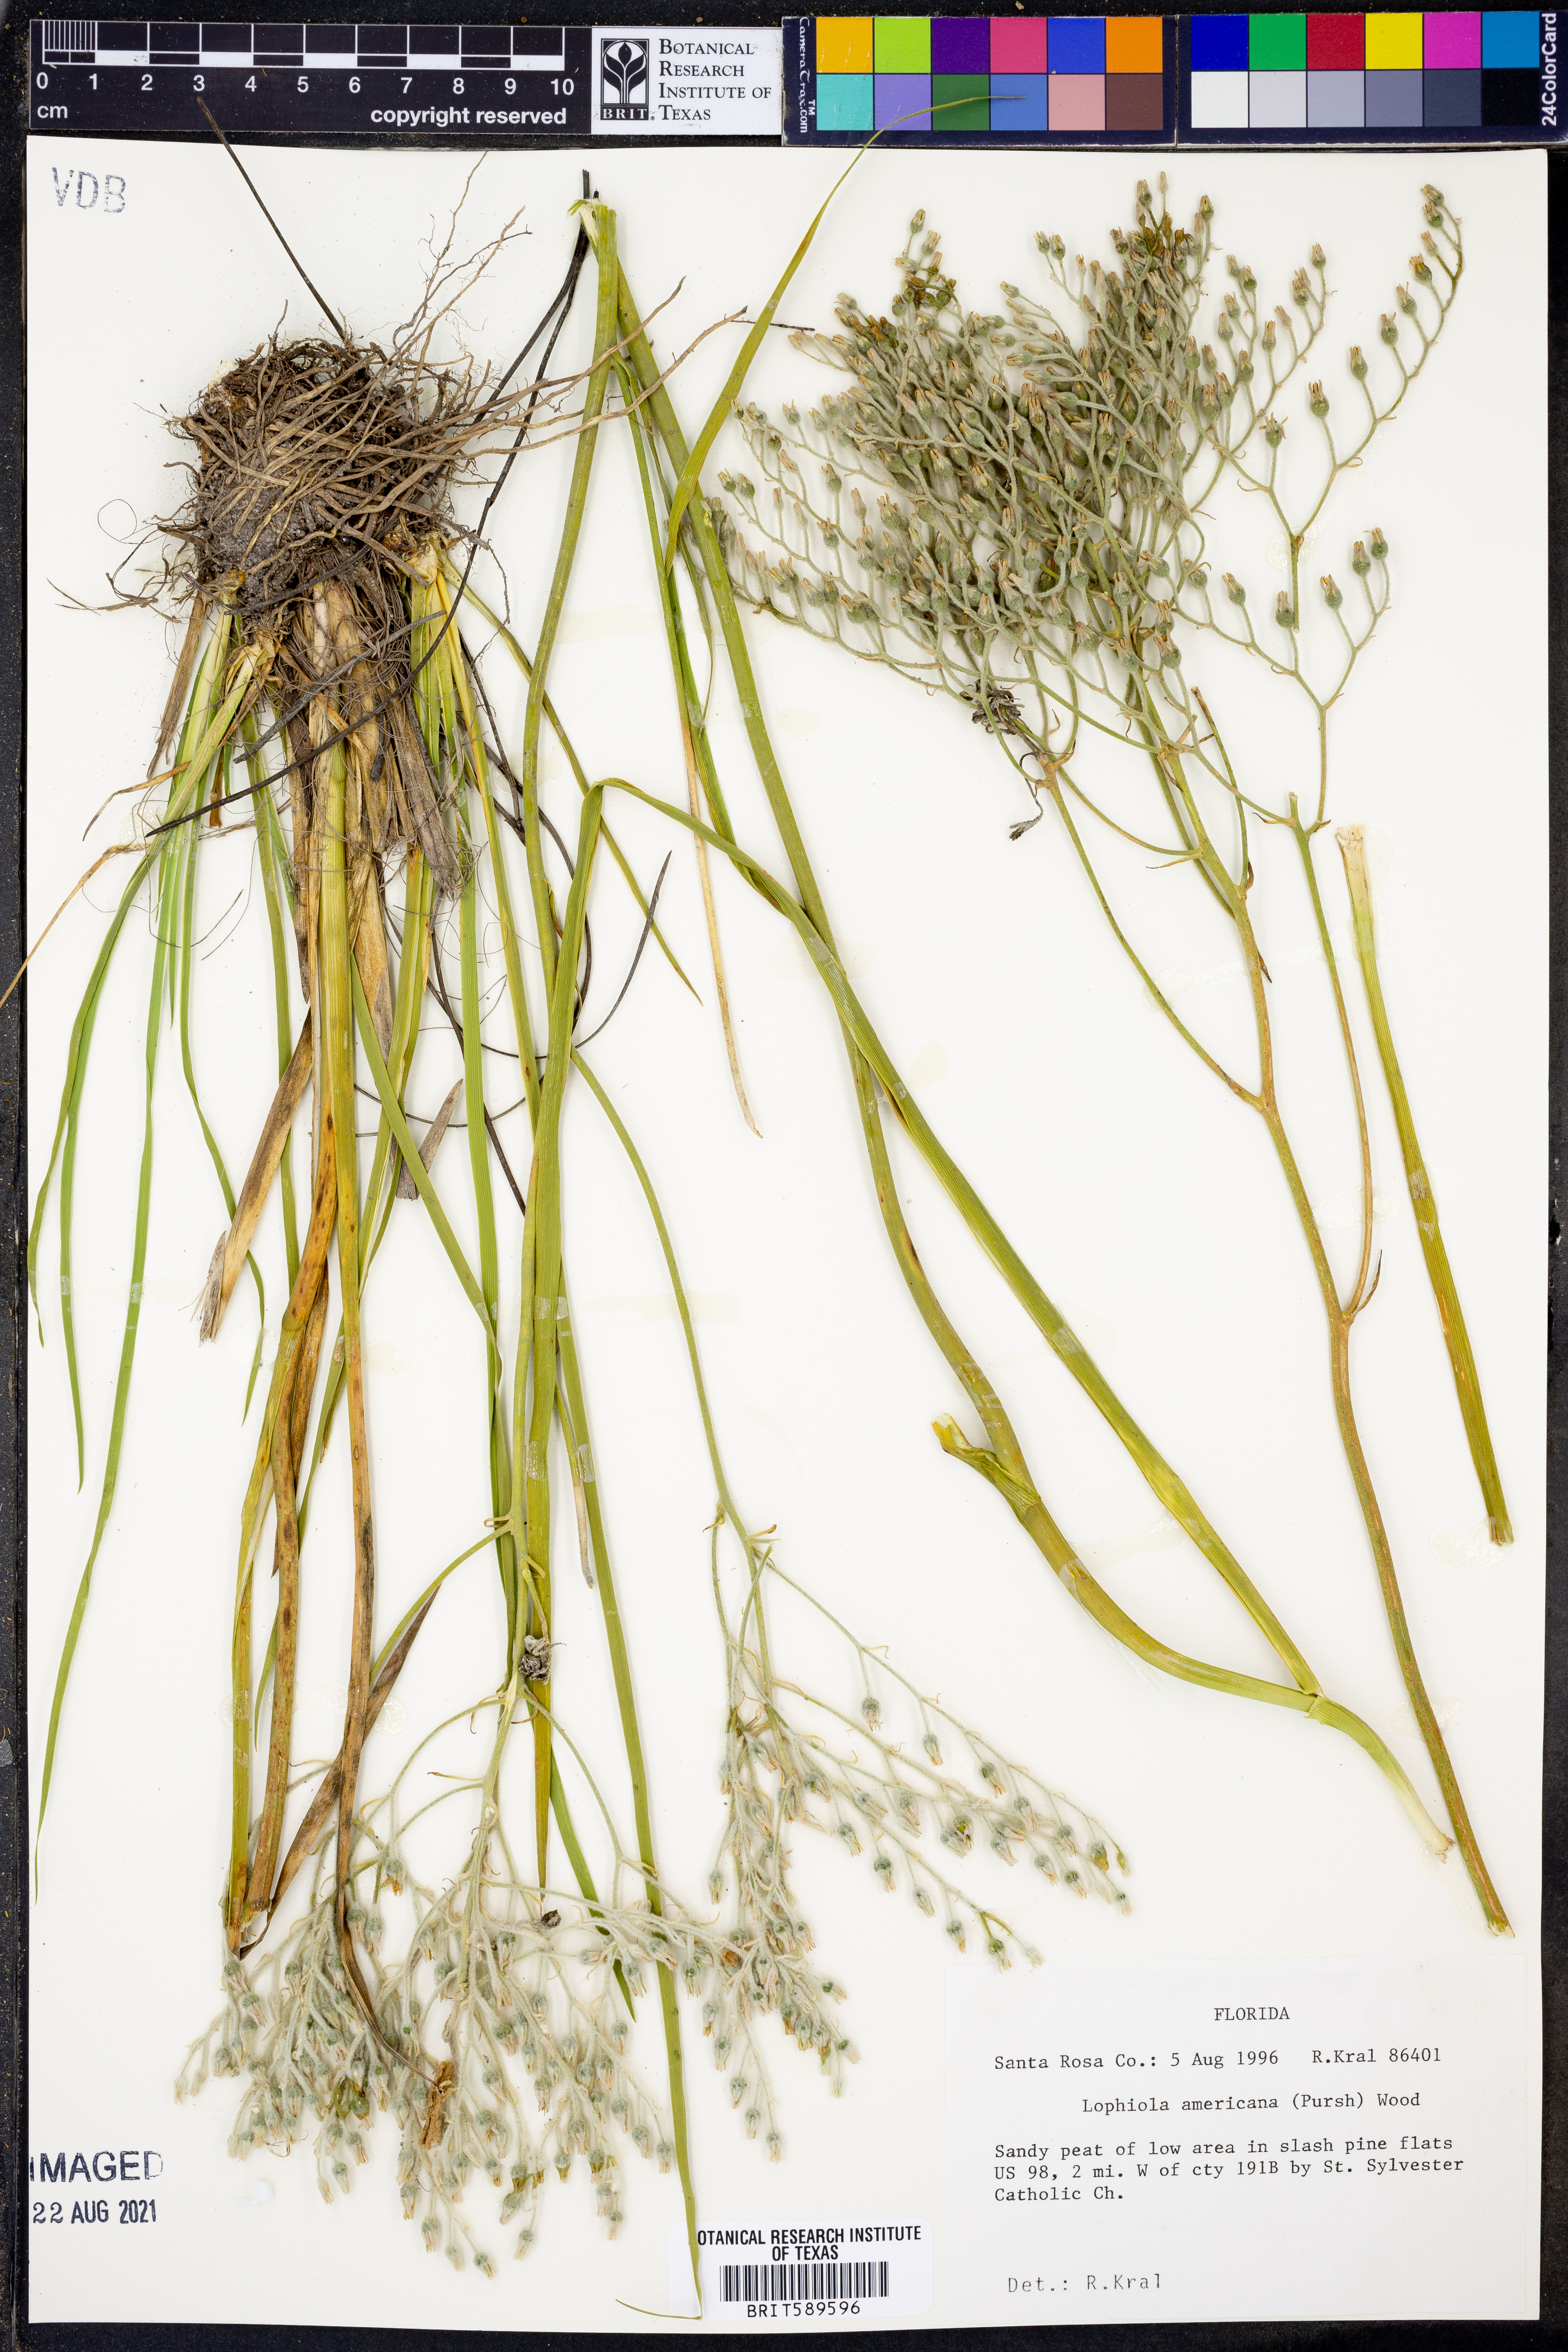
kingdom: Plantae
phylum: Tracheophyta
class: Liliopsida
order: Dioscoreales
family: Nartheciaceae
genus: Lophiola
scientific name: Lophiola aurea
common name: Golden-crest
